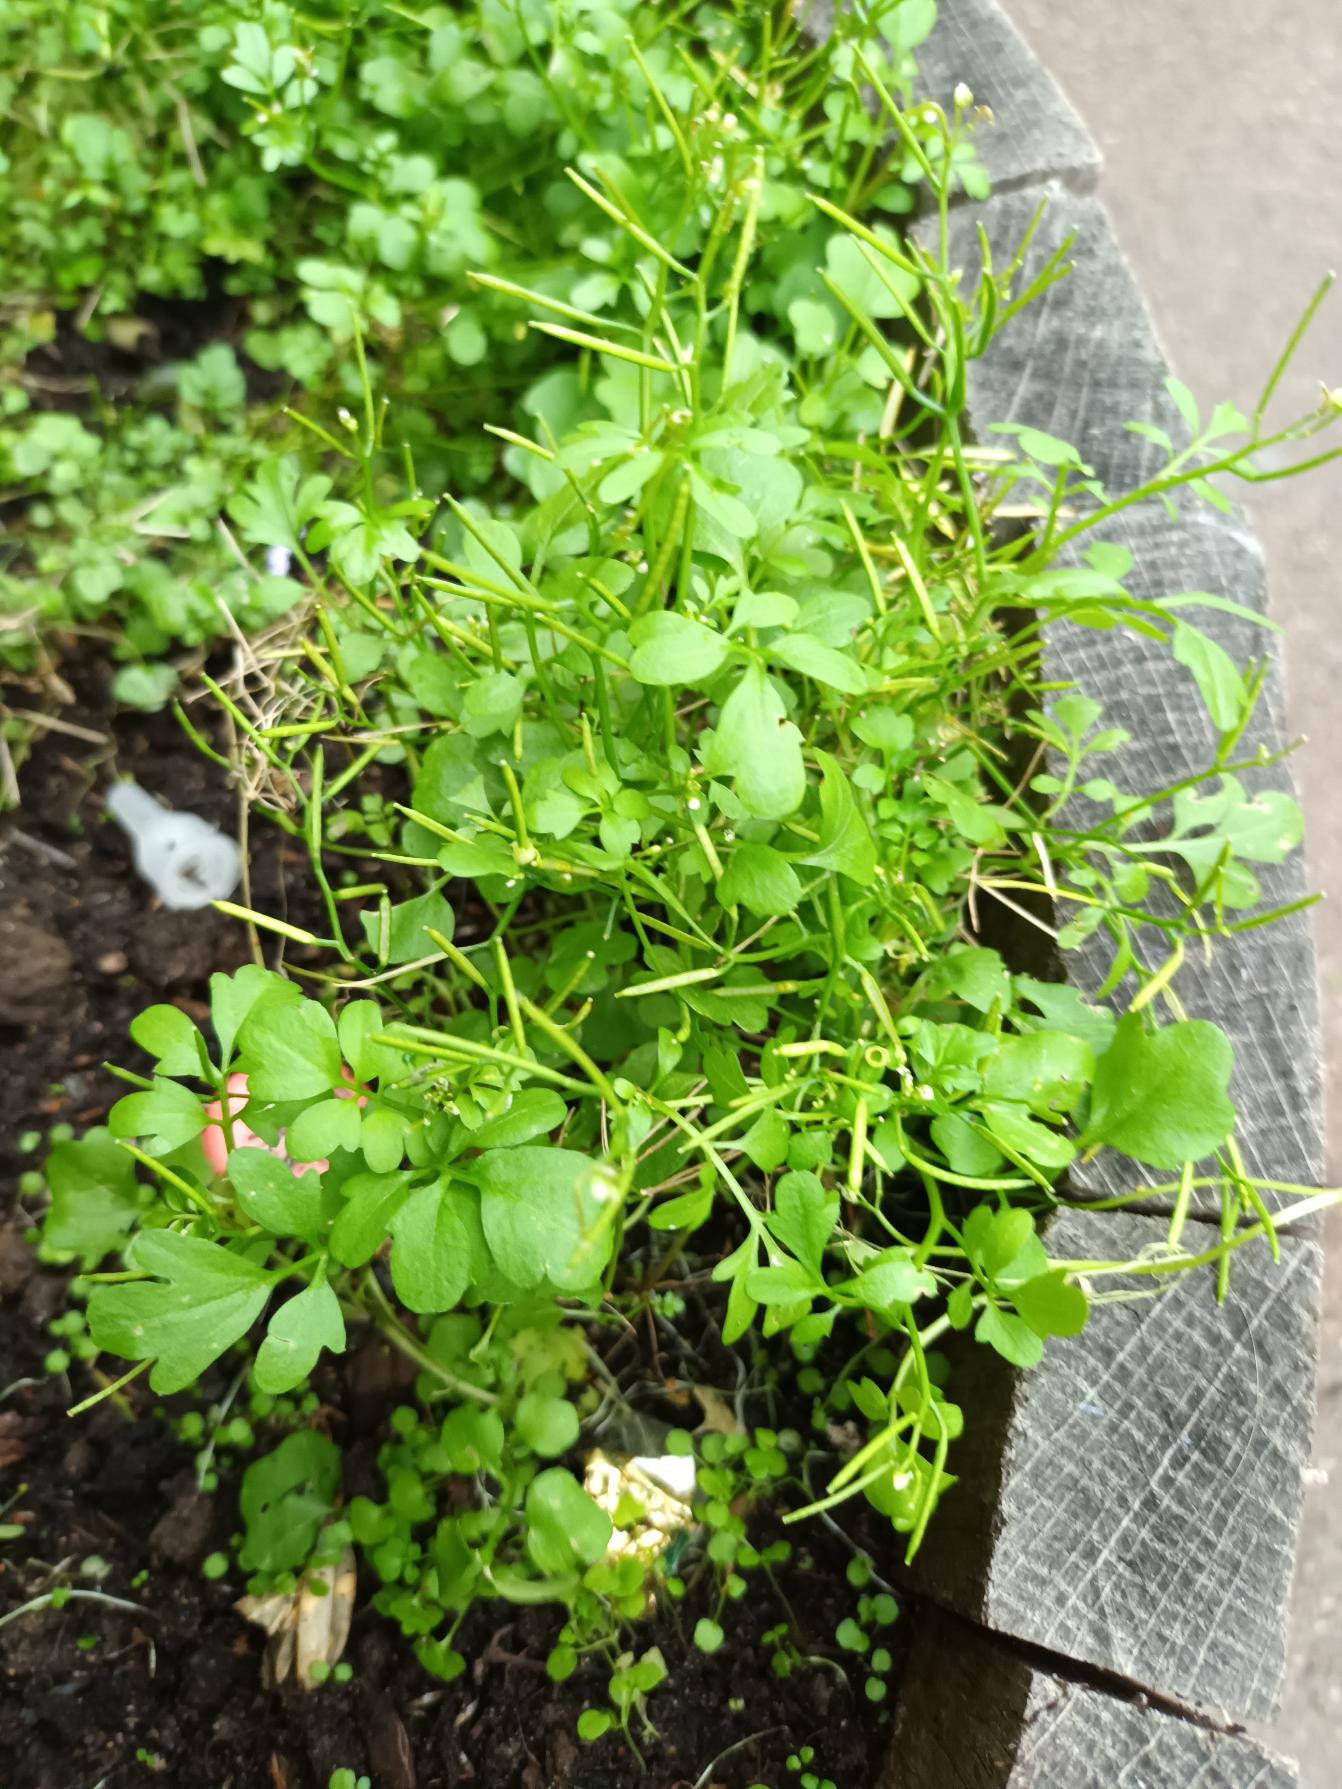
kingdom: Plantae
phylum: Tracheophyta
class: Magnoliopsida
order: Brassicales
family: Brassicaceae
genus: Cardamine
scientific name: Cardamine occulta
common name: Glat skovkarse
